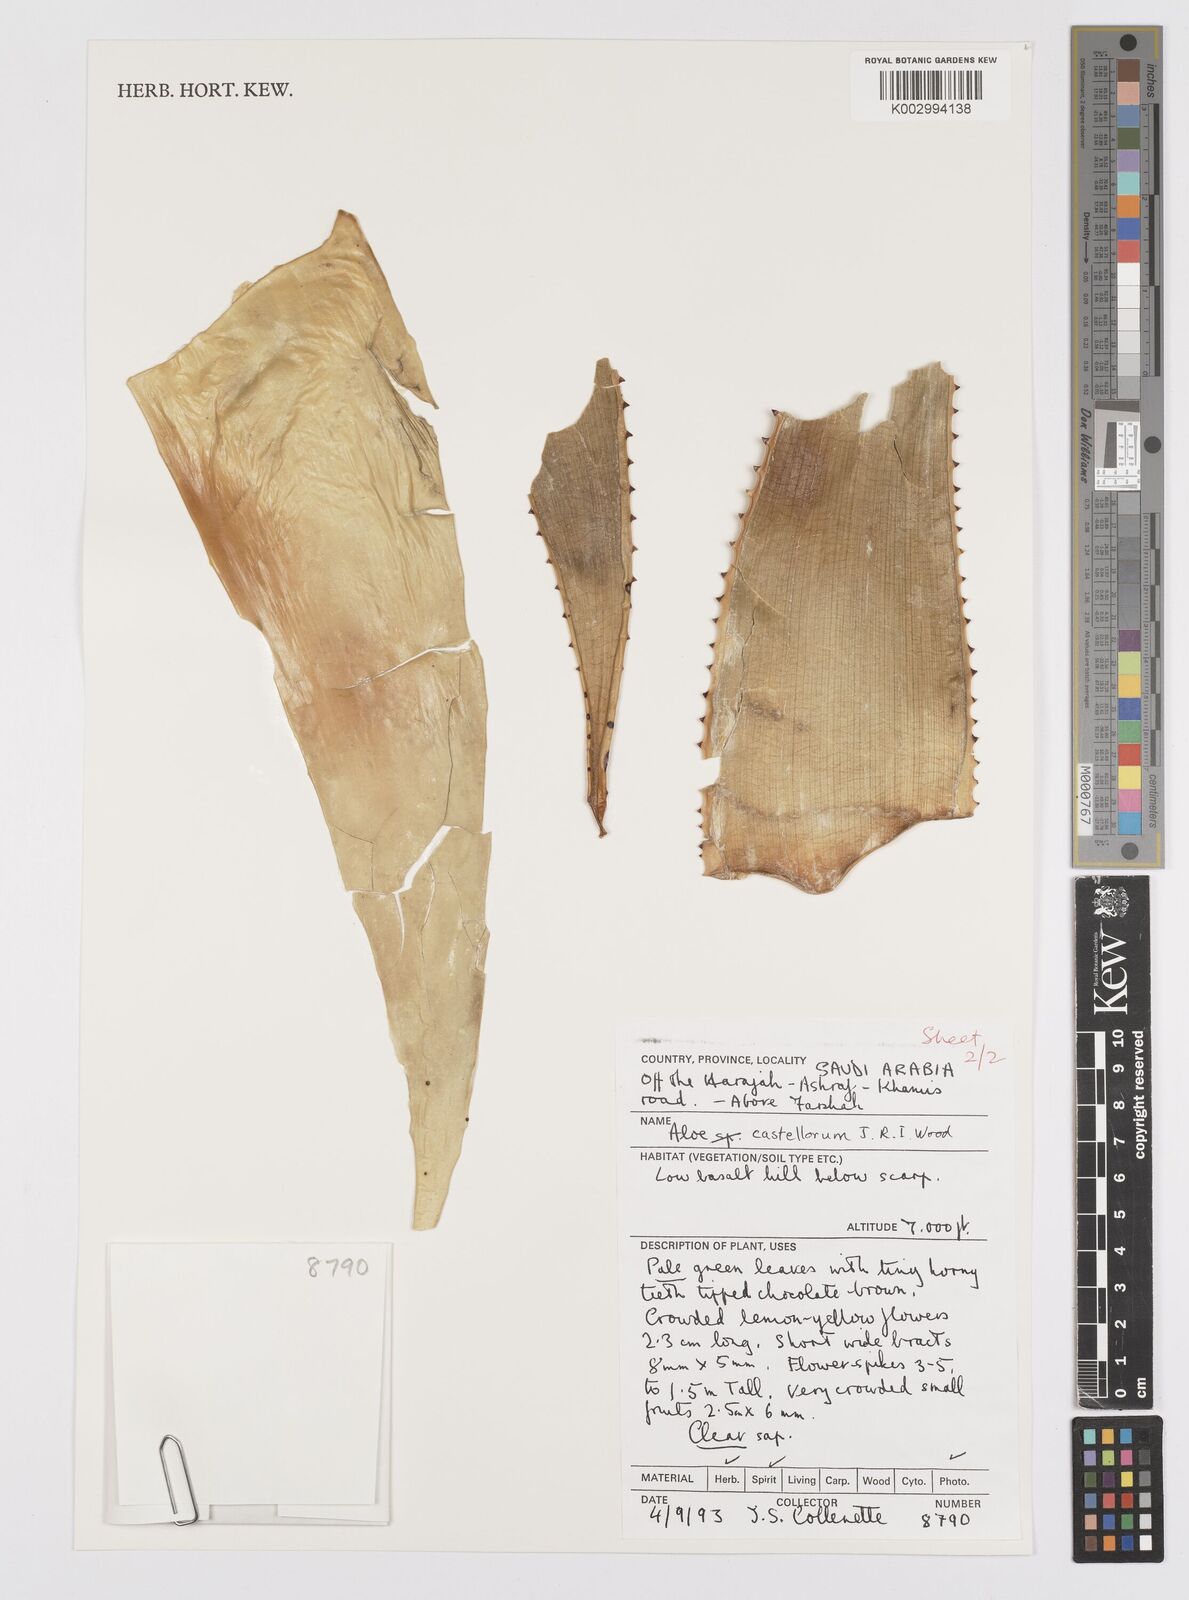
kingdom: Plantae
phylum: Tracheophyta
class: Liliopsida
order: Asparagales
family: Asphodelaceae
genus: Aloe
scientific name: Aloe castellorum
